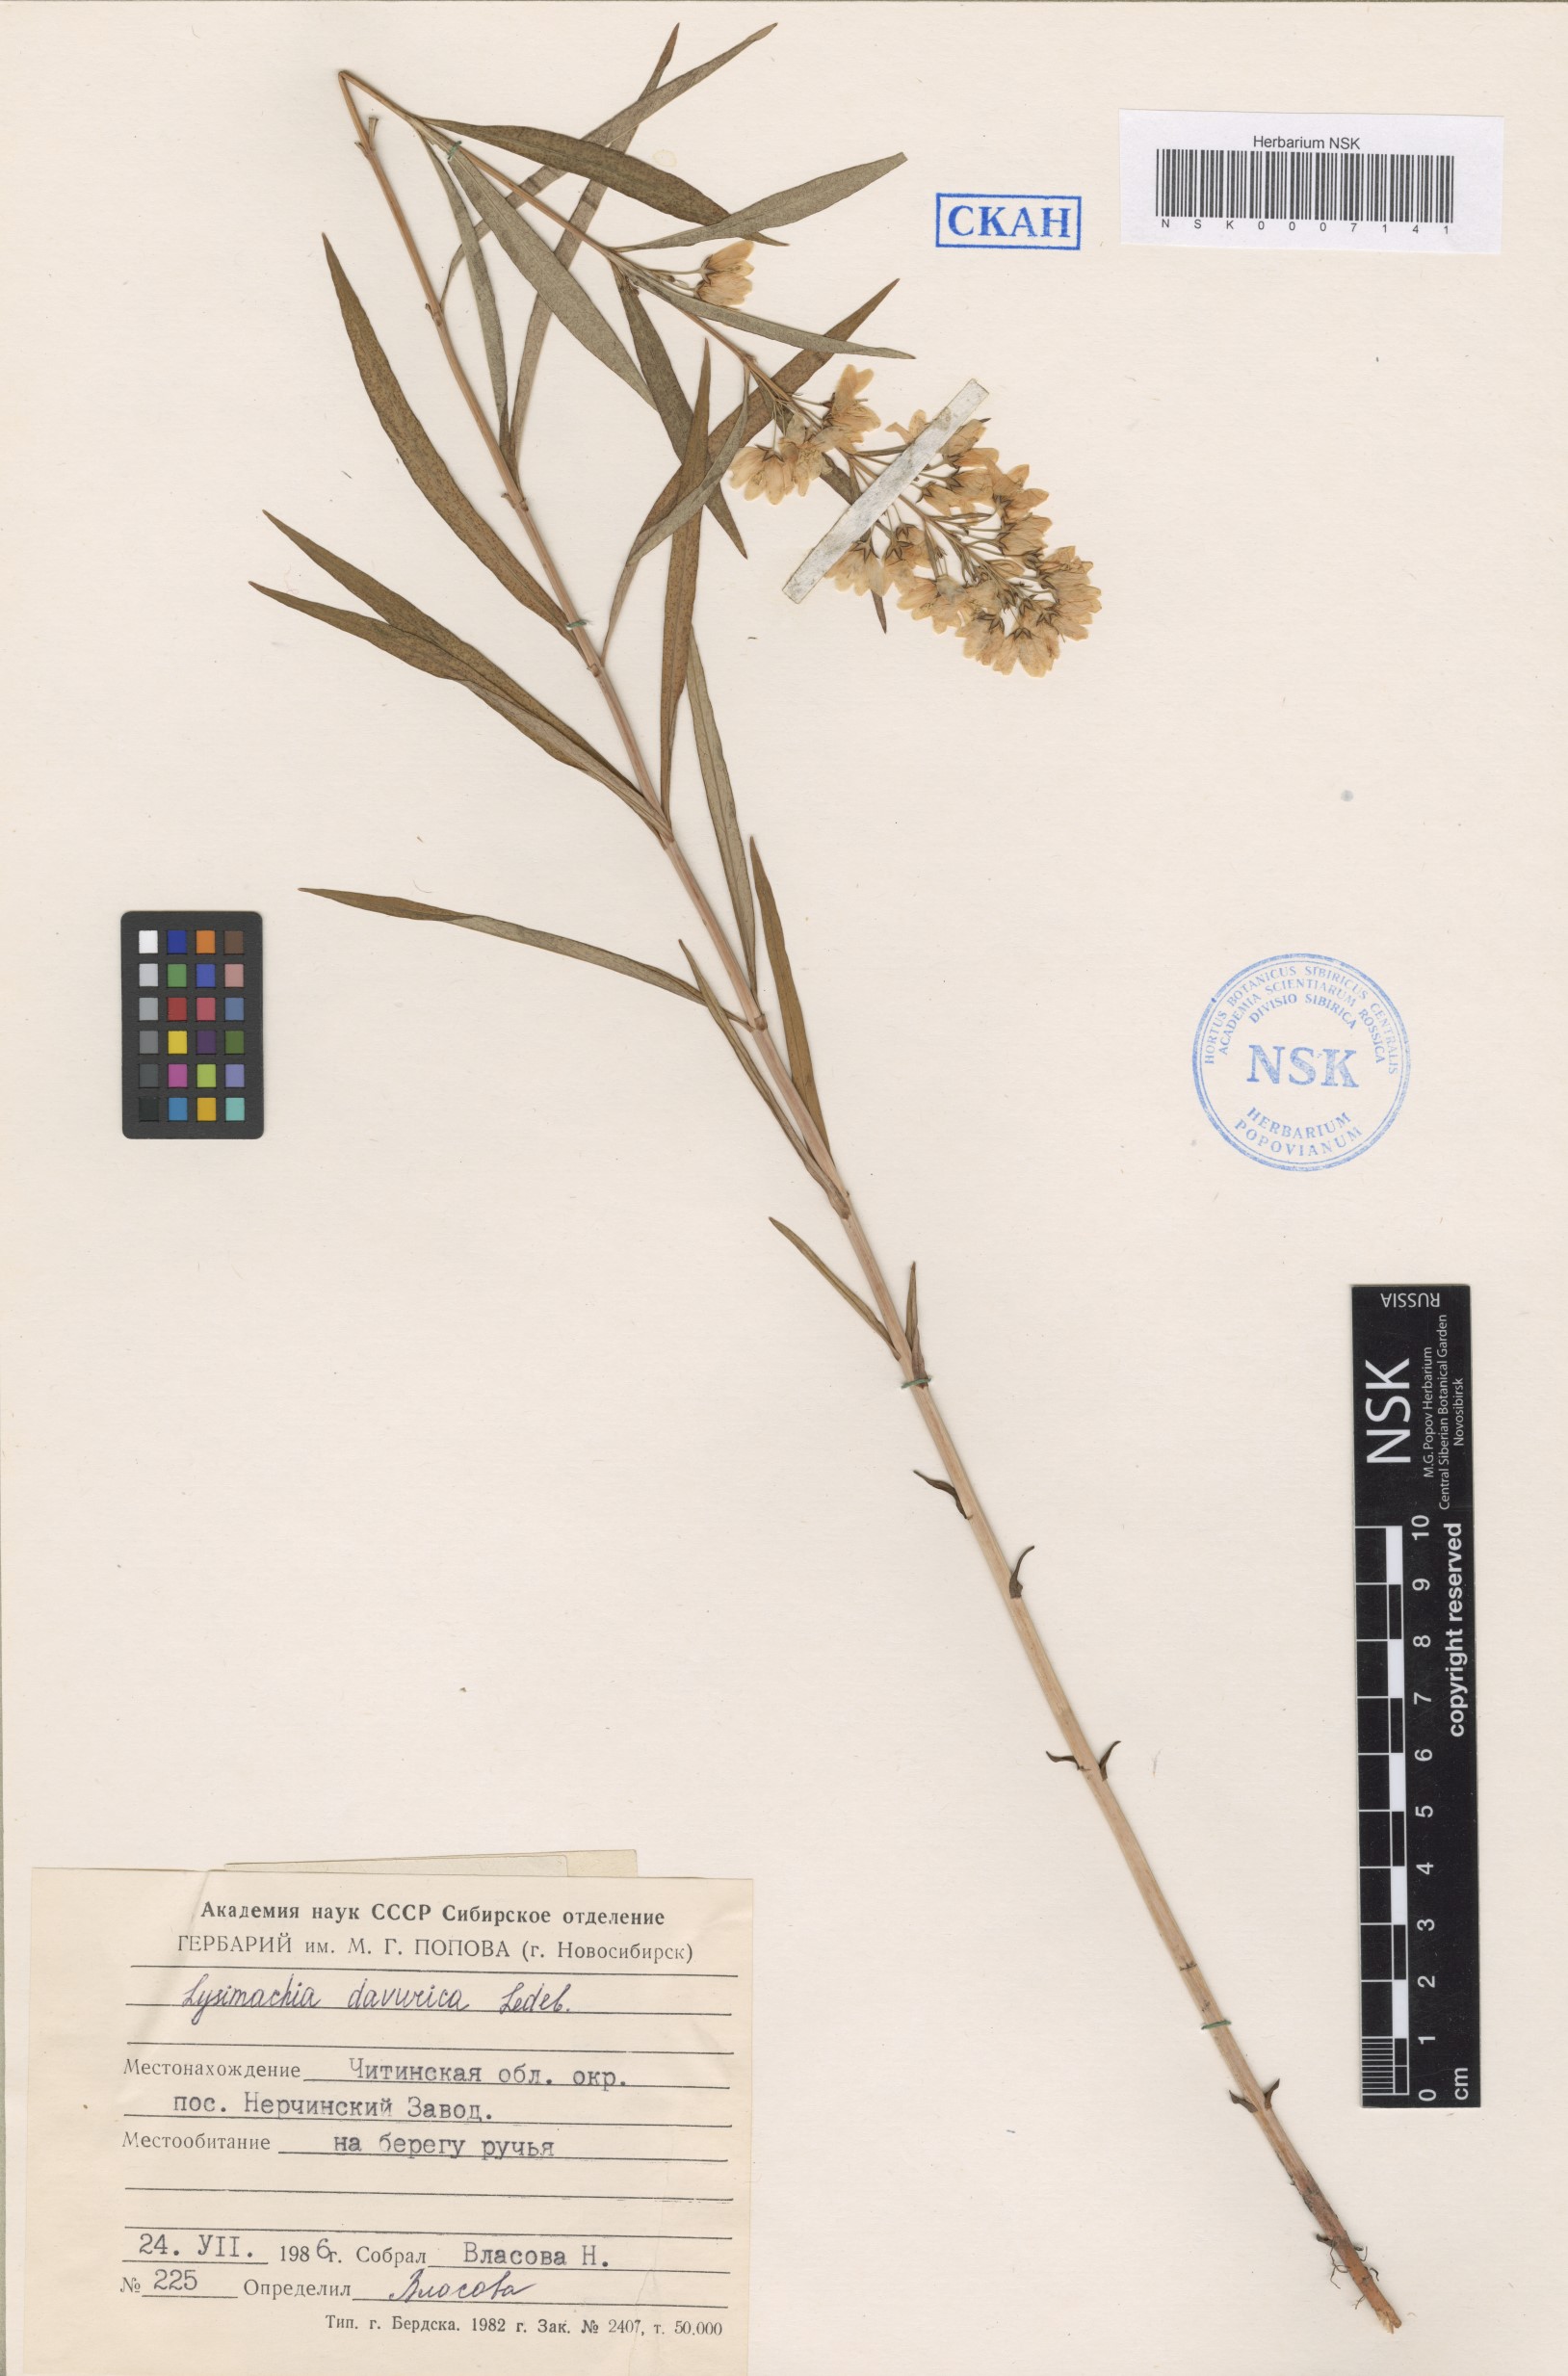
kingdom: Plantae
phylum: Tracheophyta
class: Magnoliopsida
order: Ericales
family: Primulaceae
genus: Lysimachia
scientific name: Lysimachia davurica
